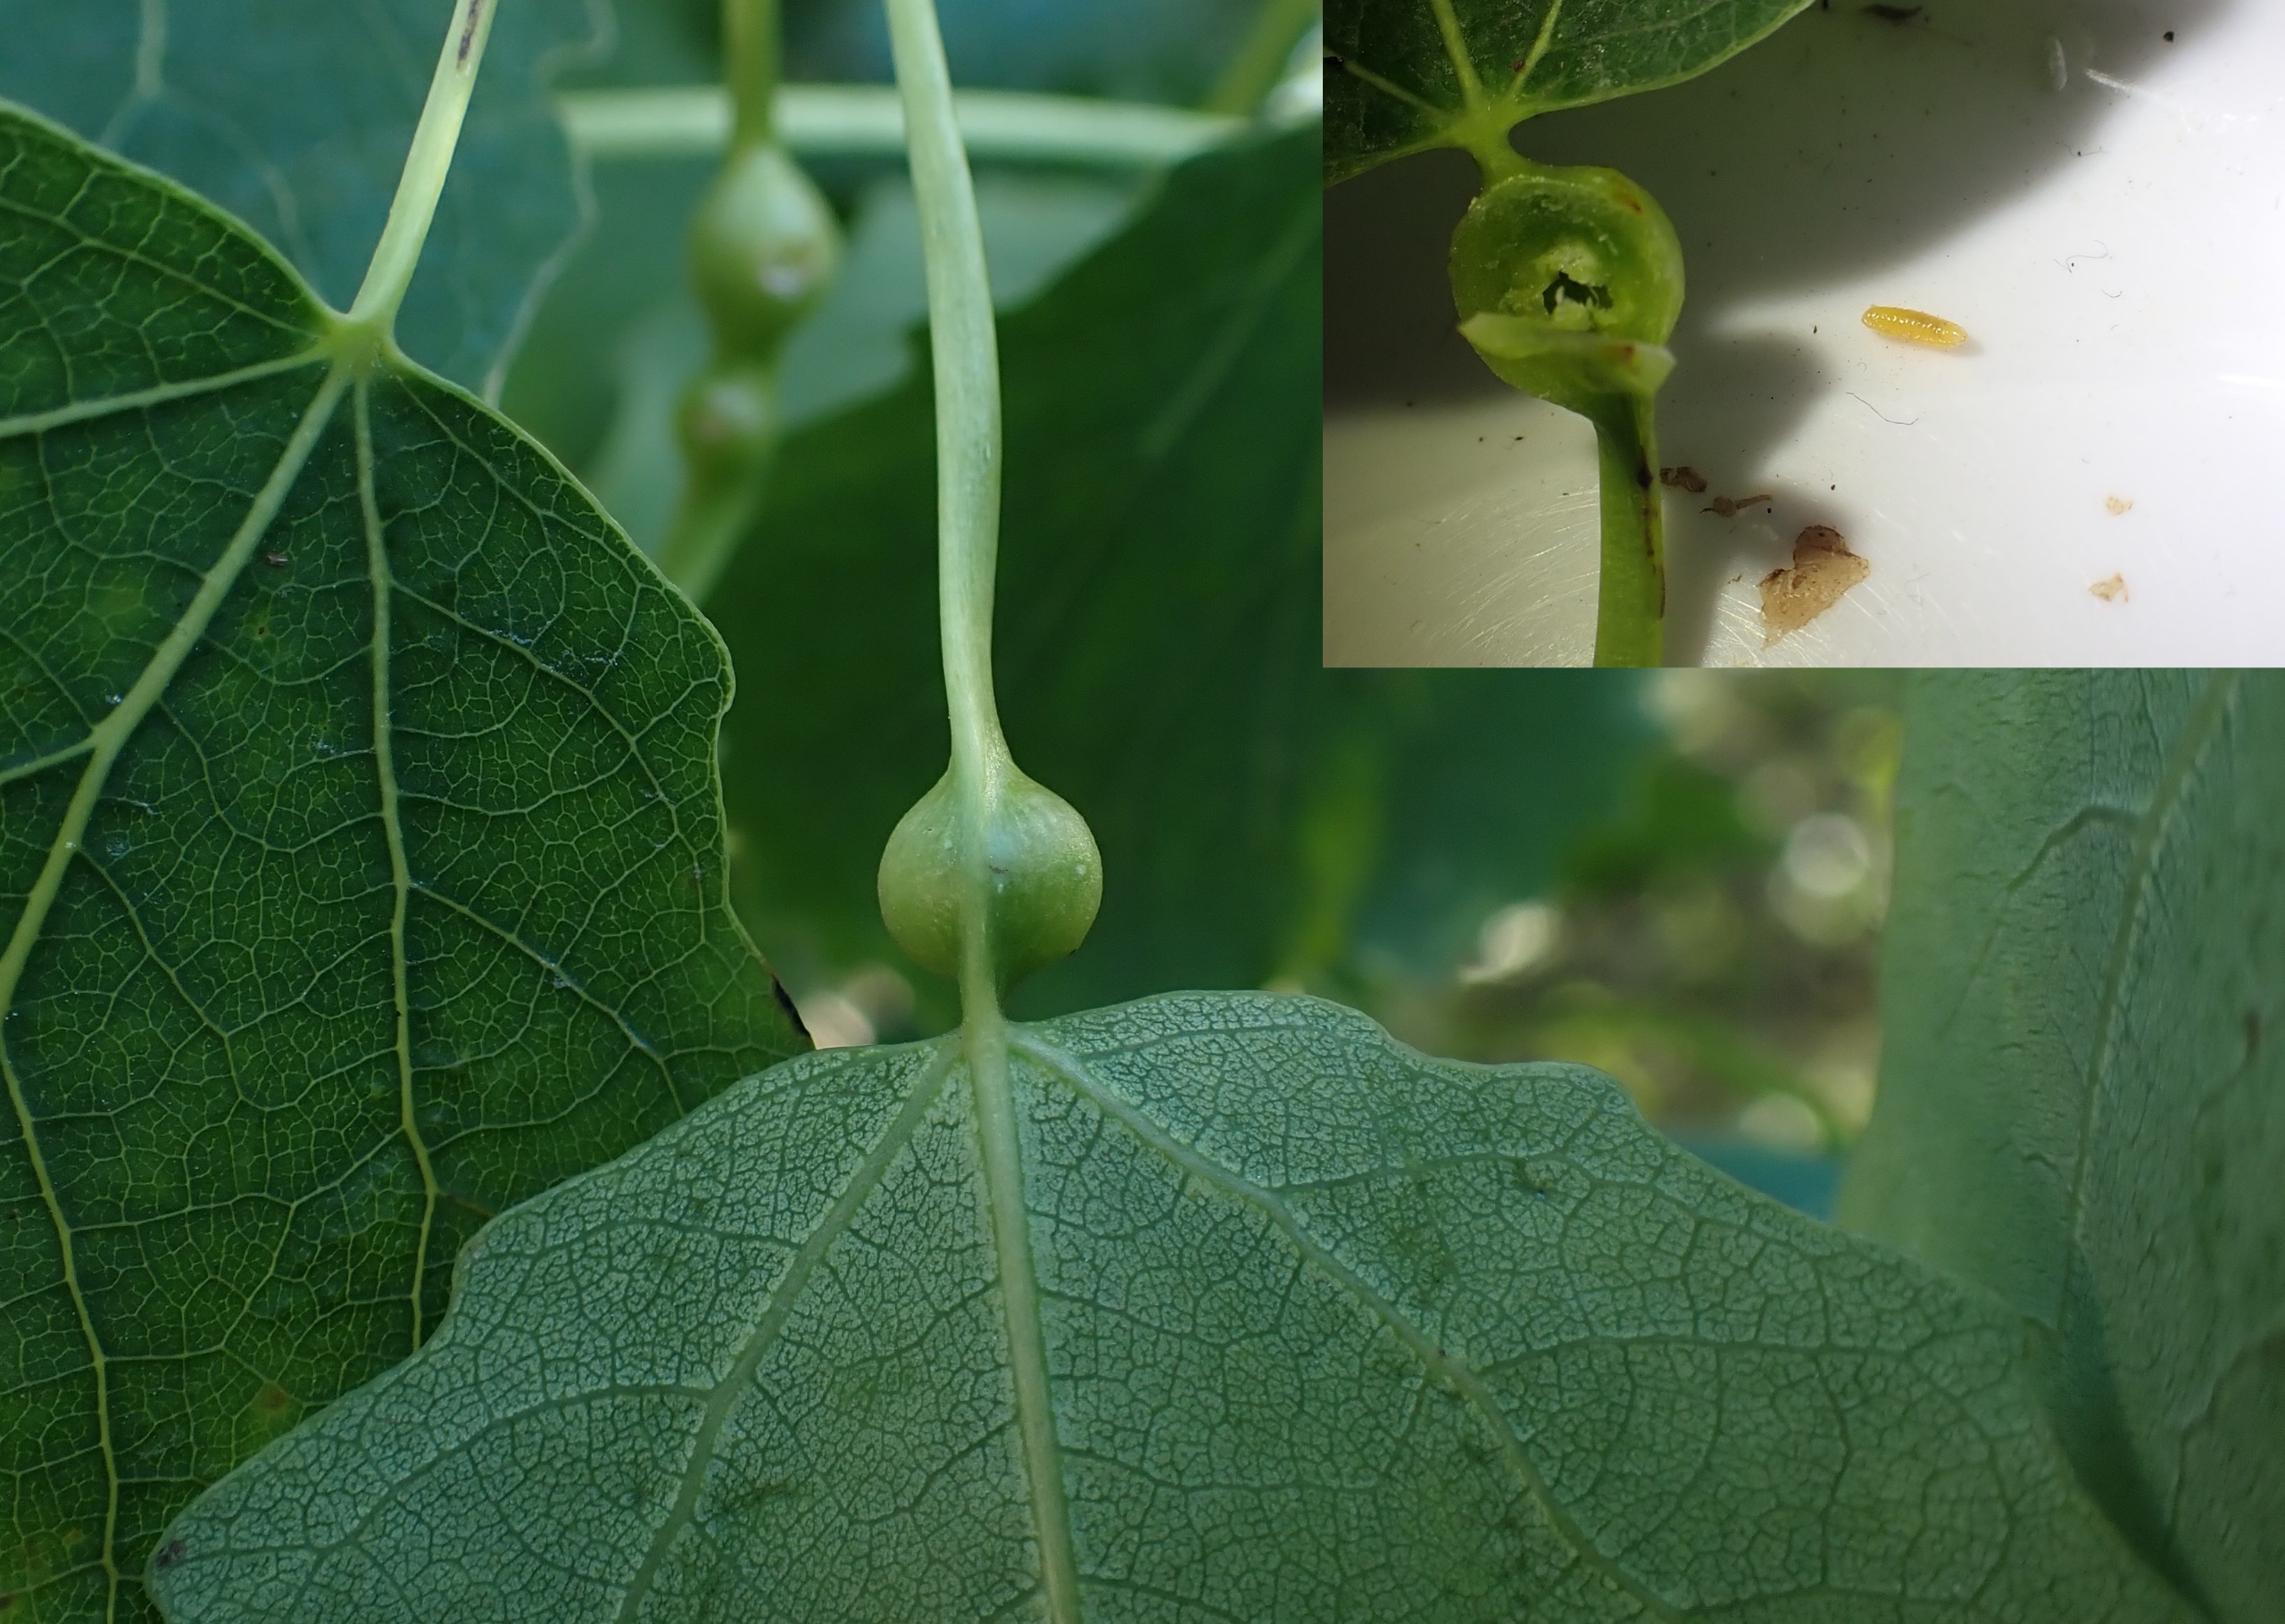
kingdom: Animalia
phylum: Arthropoda
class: Insecta
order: Diptera
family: Cecidomyiidae
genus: Contarinia
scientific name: Contarinia petioli
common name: Aspestilkgalmyg
